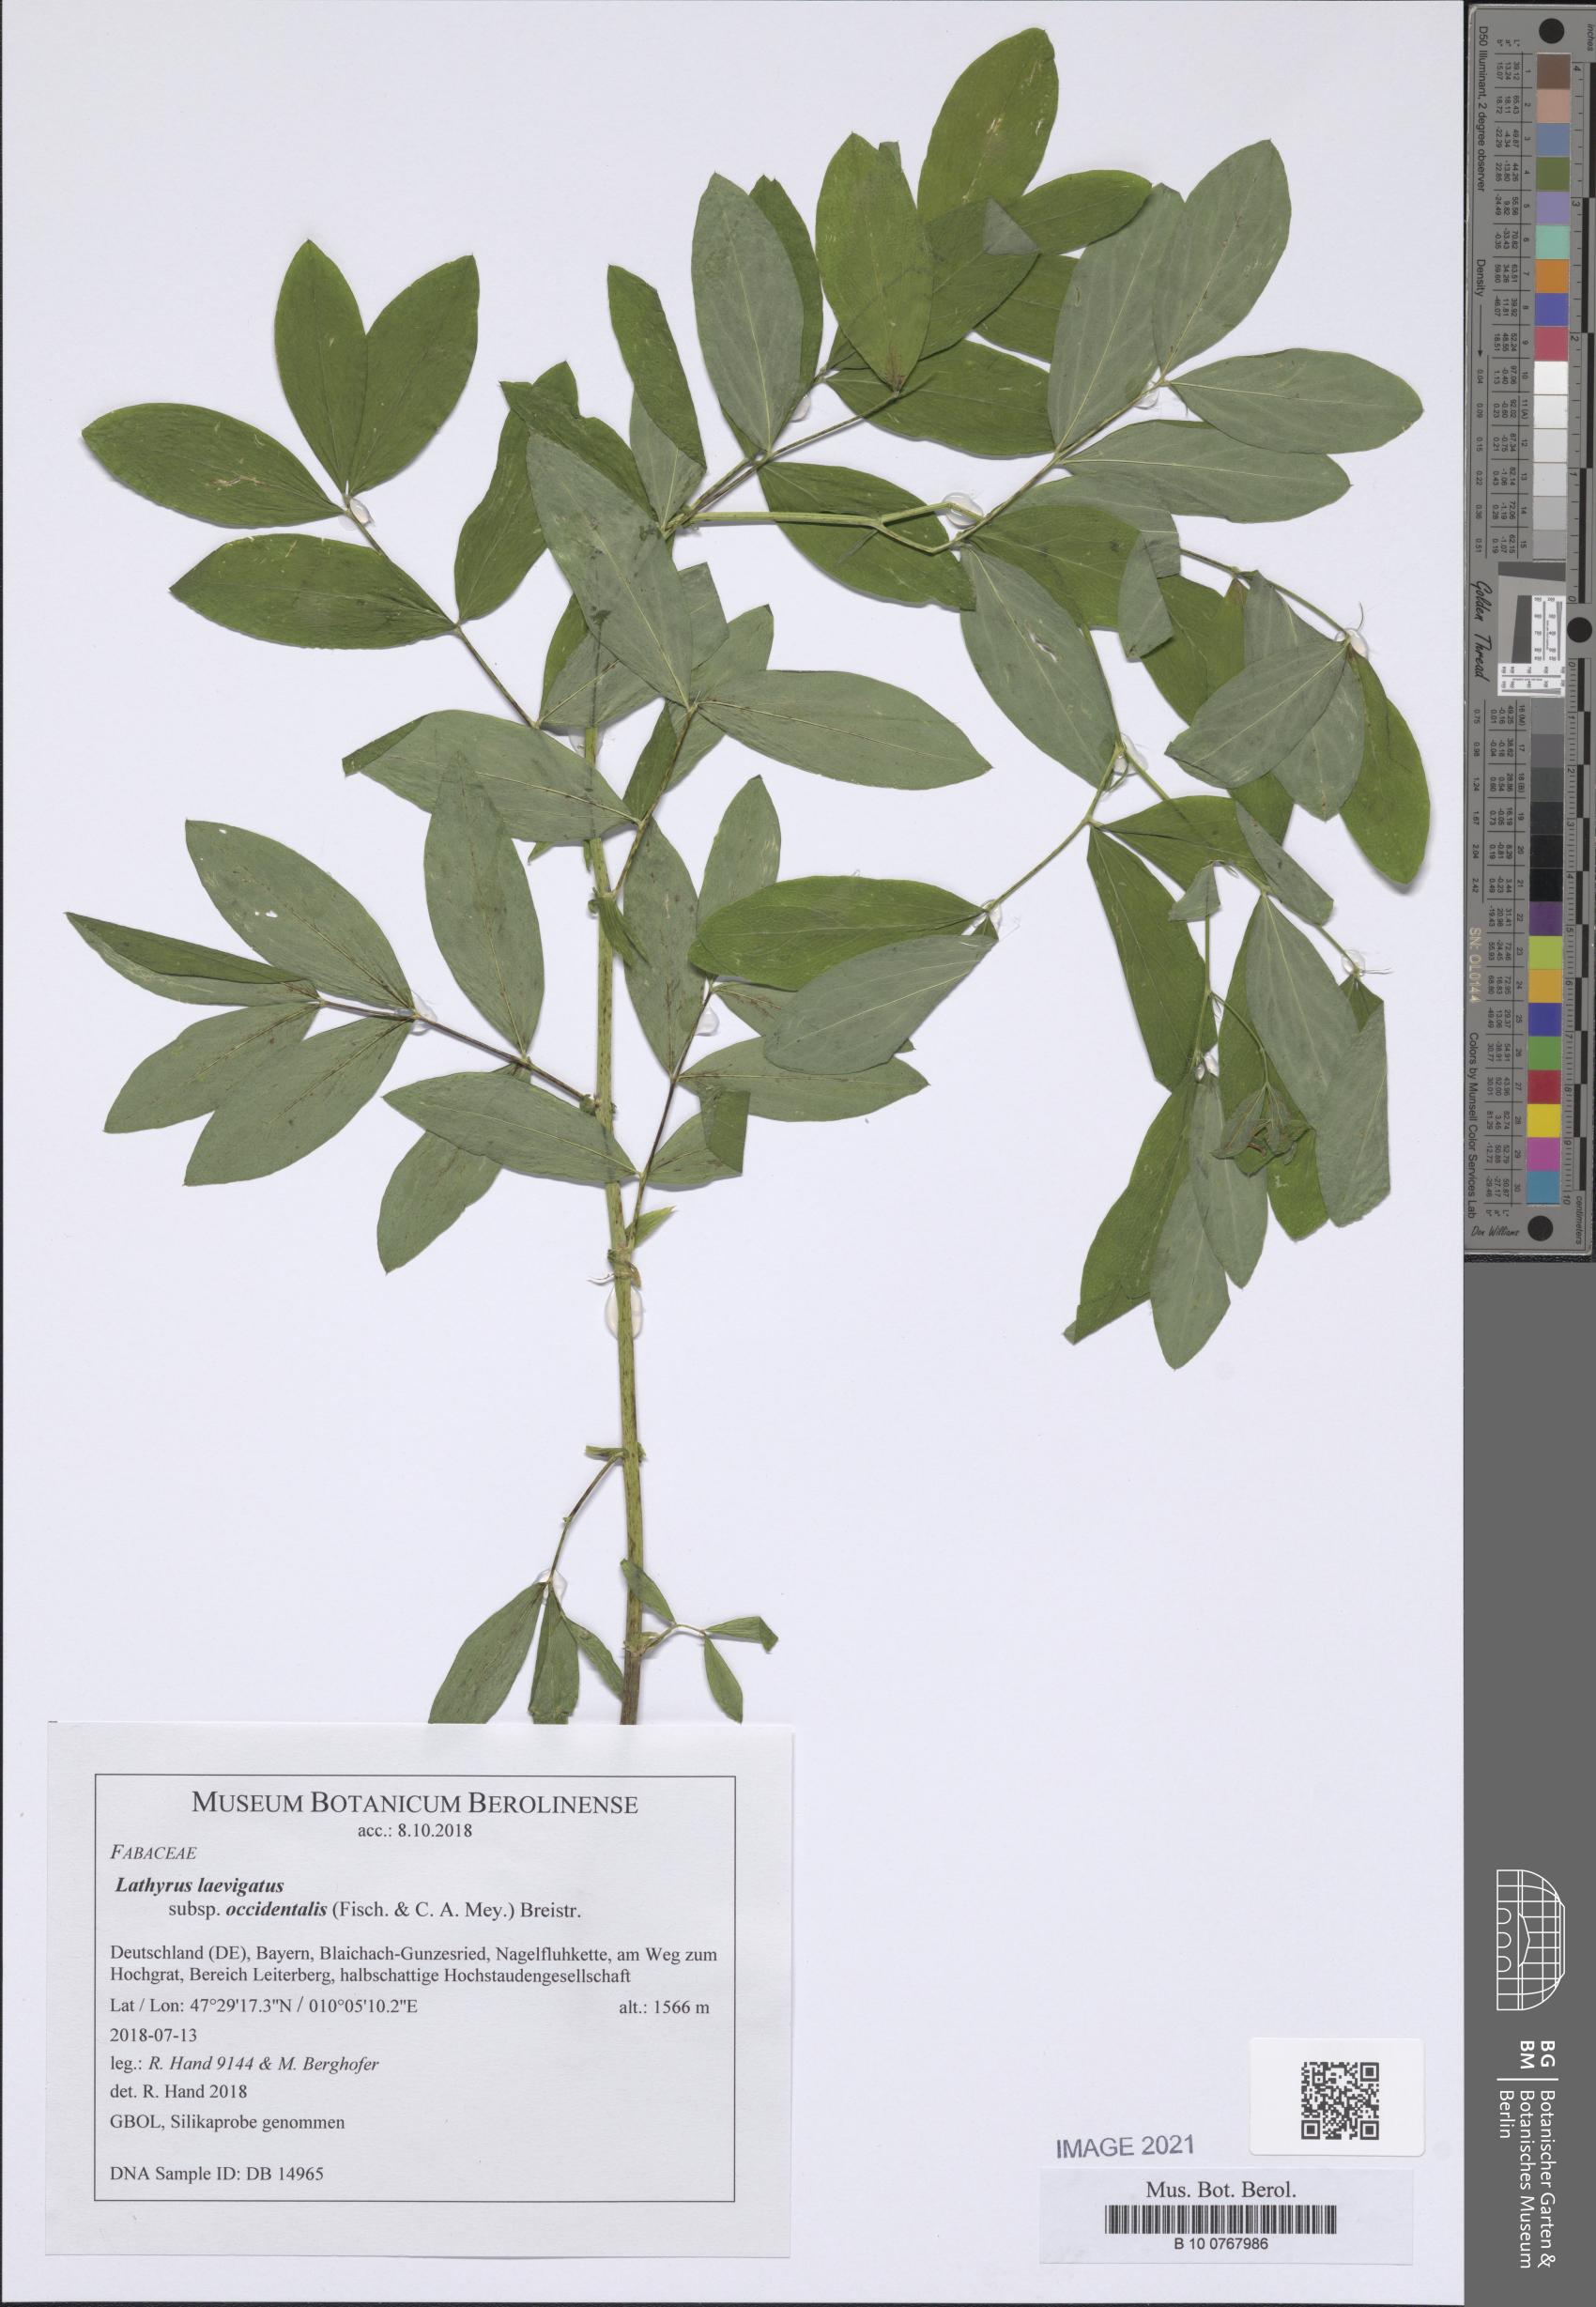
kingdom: Plantae
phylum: Tracheophyta
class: Magnoliopsida
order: Fabales
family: Fabaceae
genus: Lathyrus
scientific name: Lathyrus laevigatus
